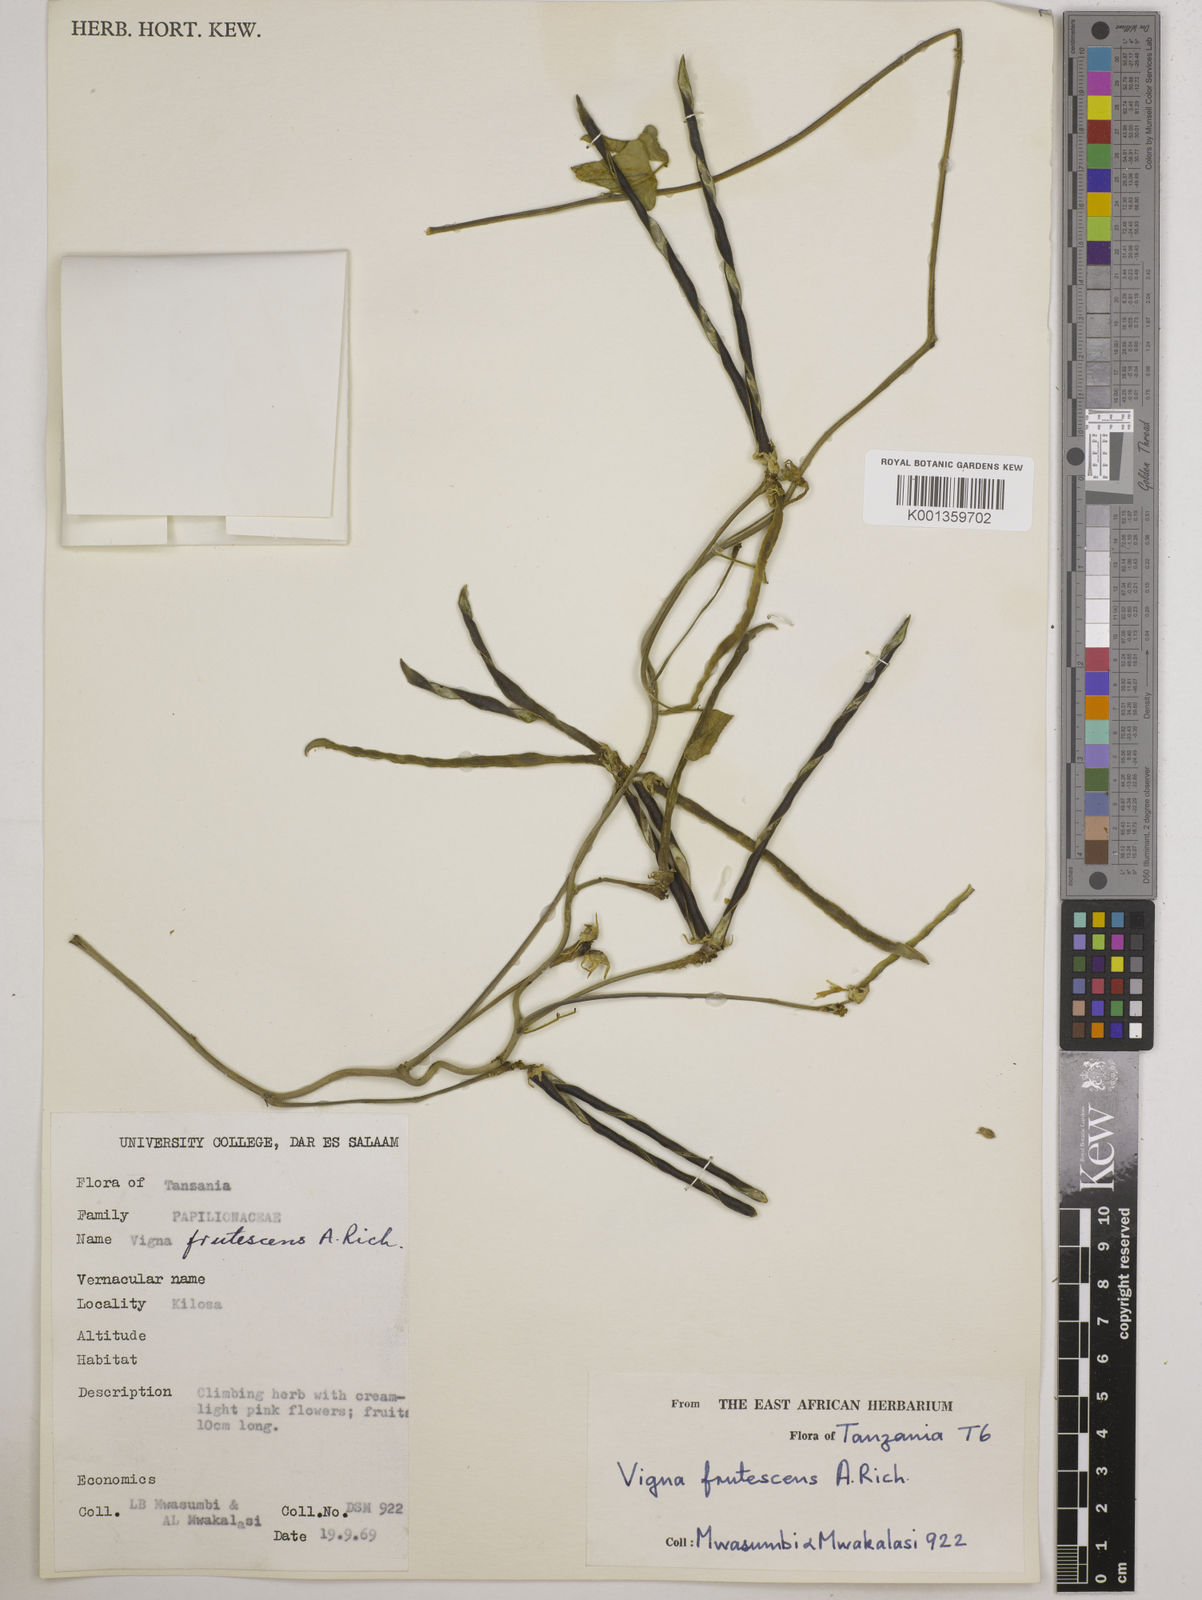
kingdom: Plantae
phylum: Tracheophyta
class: Magnoliopsida
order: Fabales
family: Fabaceae
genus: Vigna
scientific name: Vigna frutescens
